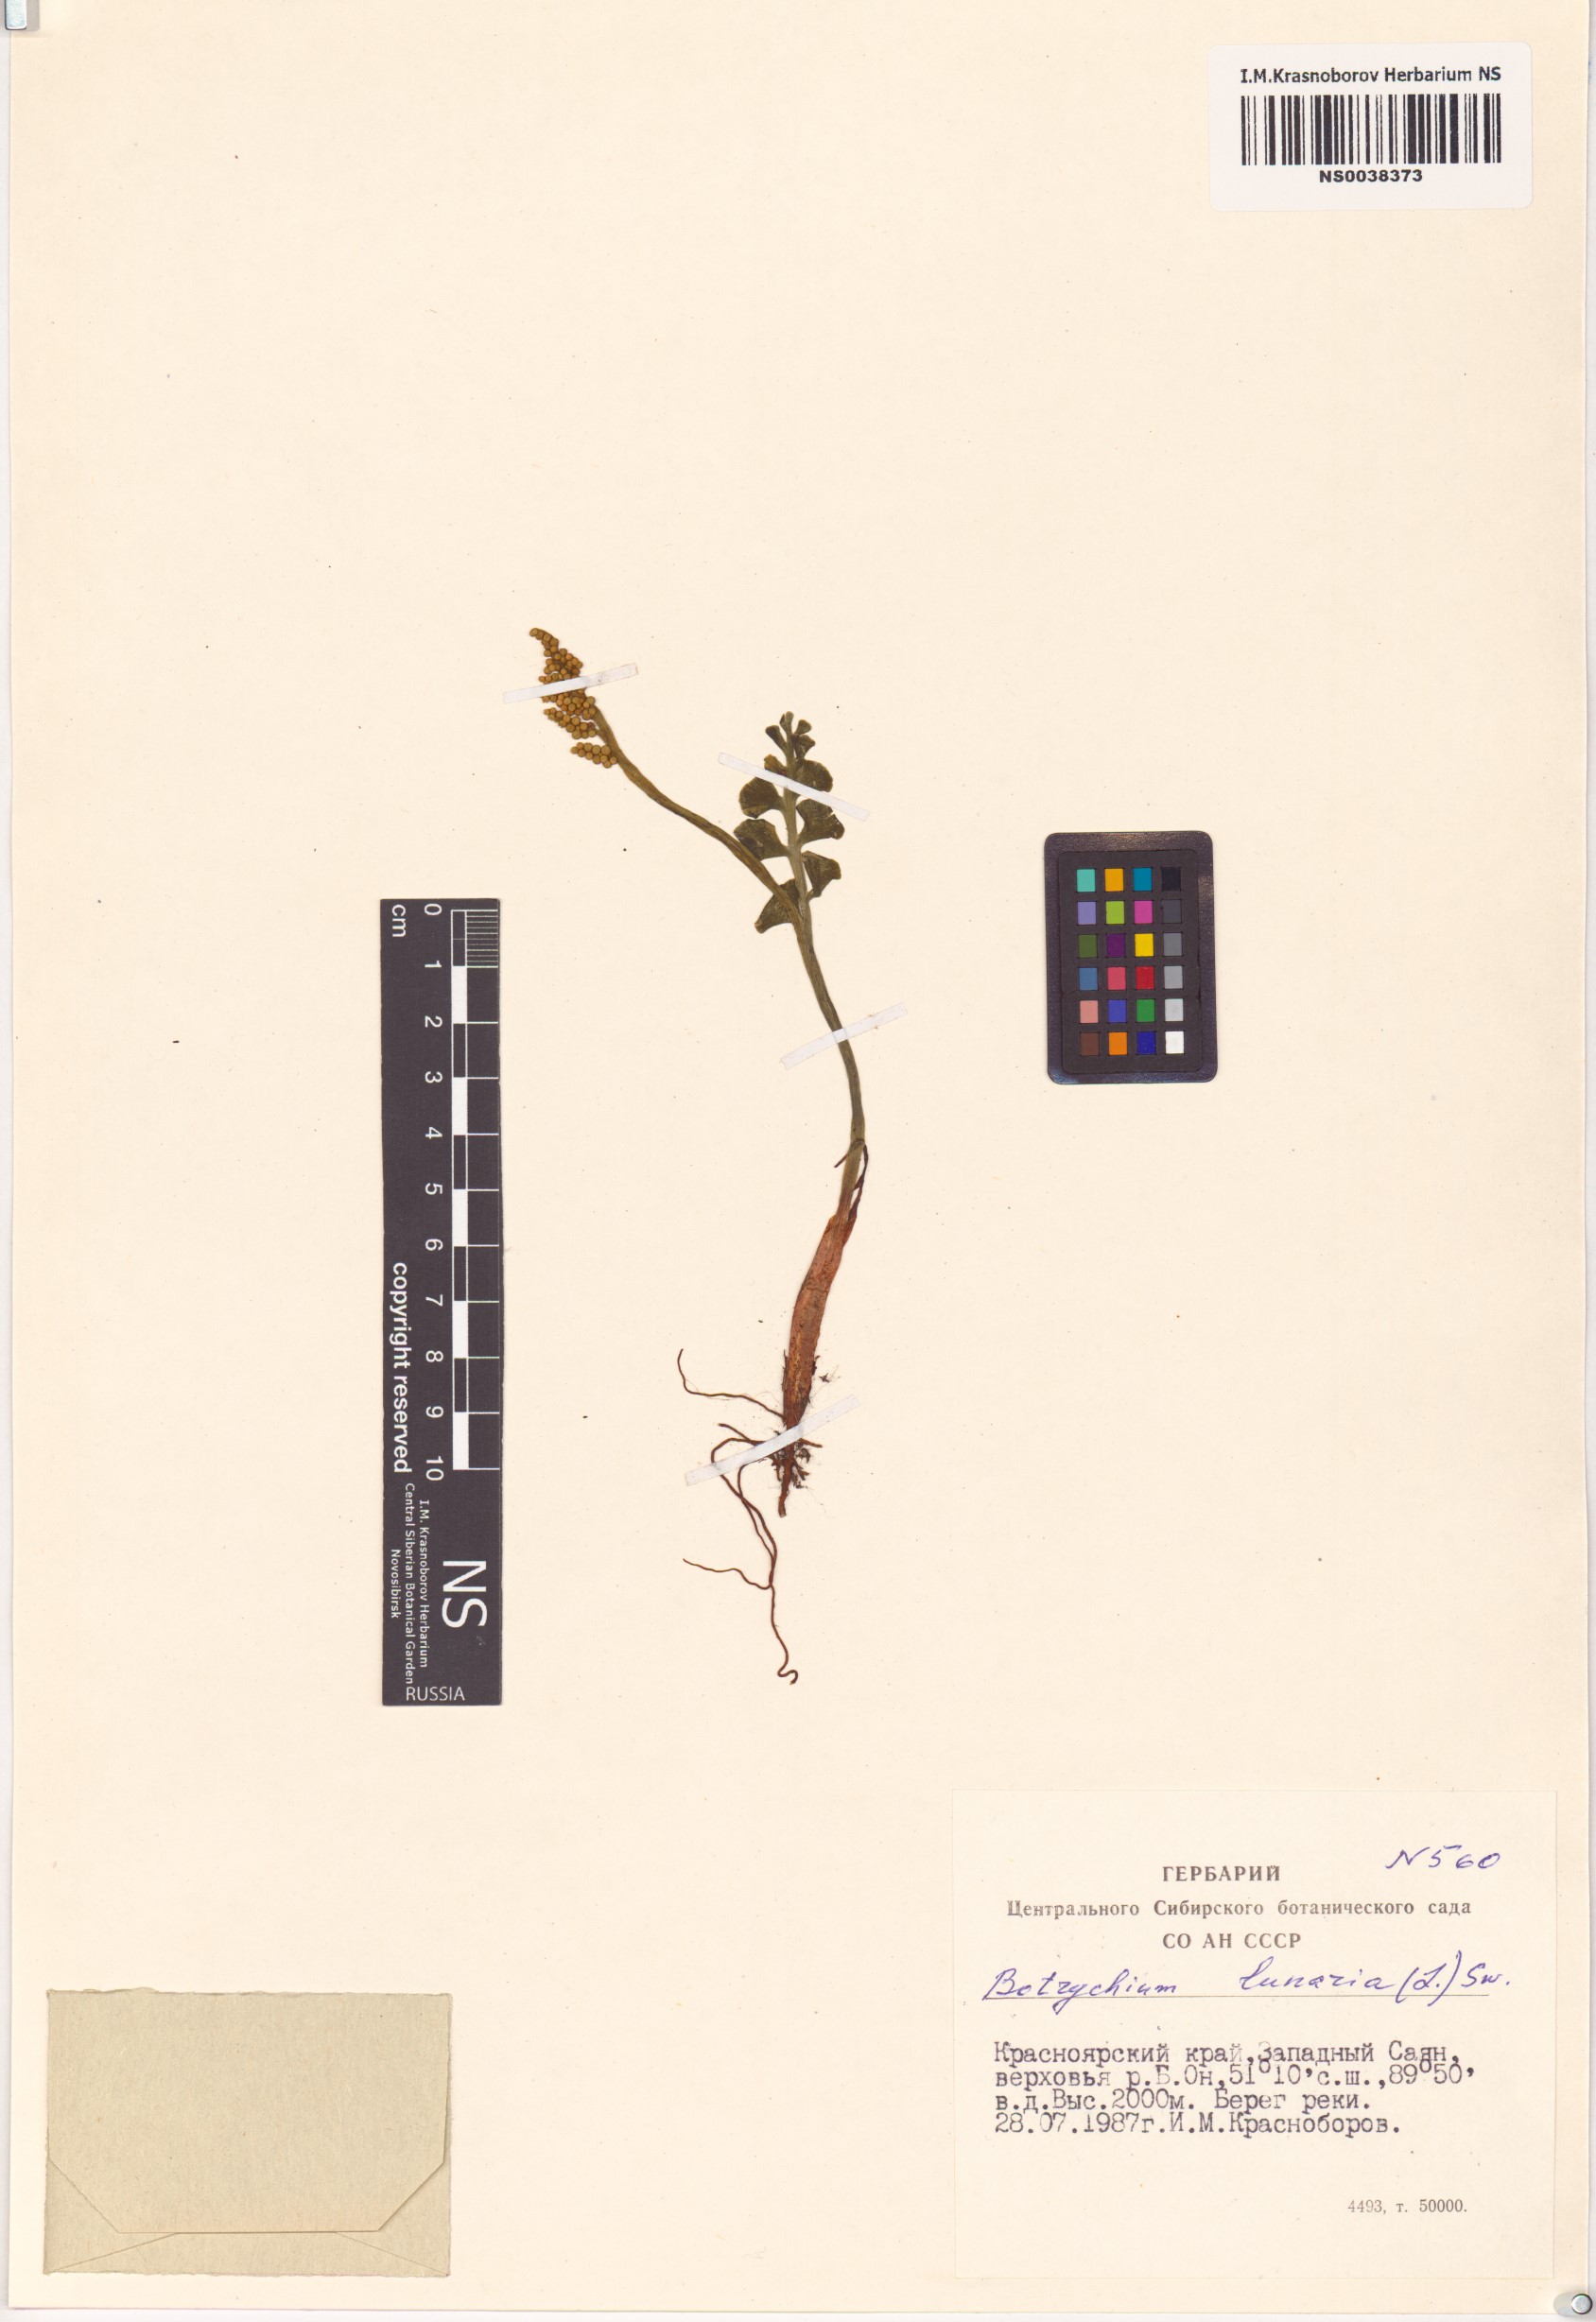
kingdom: Plantae
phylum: Tracheophyta
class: Polypodiopsida
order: Ophioglossales
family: Ophioglossaceae
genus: Botrychium
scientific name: Botrychium lunaria
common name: Moonwort
